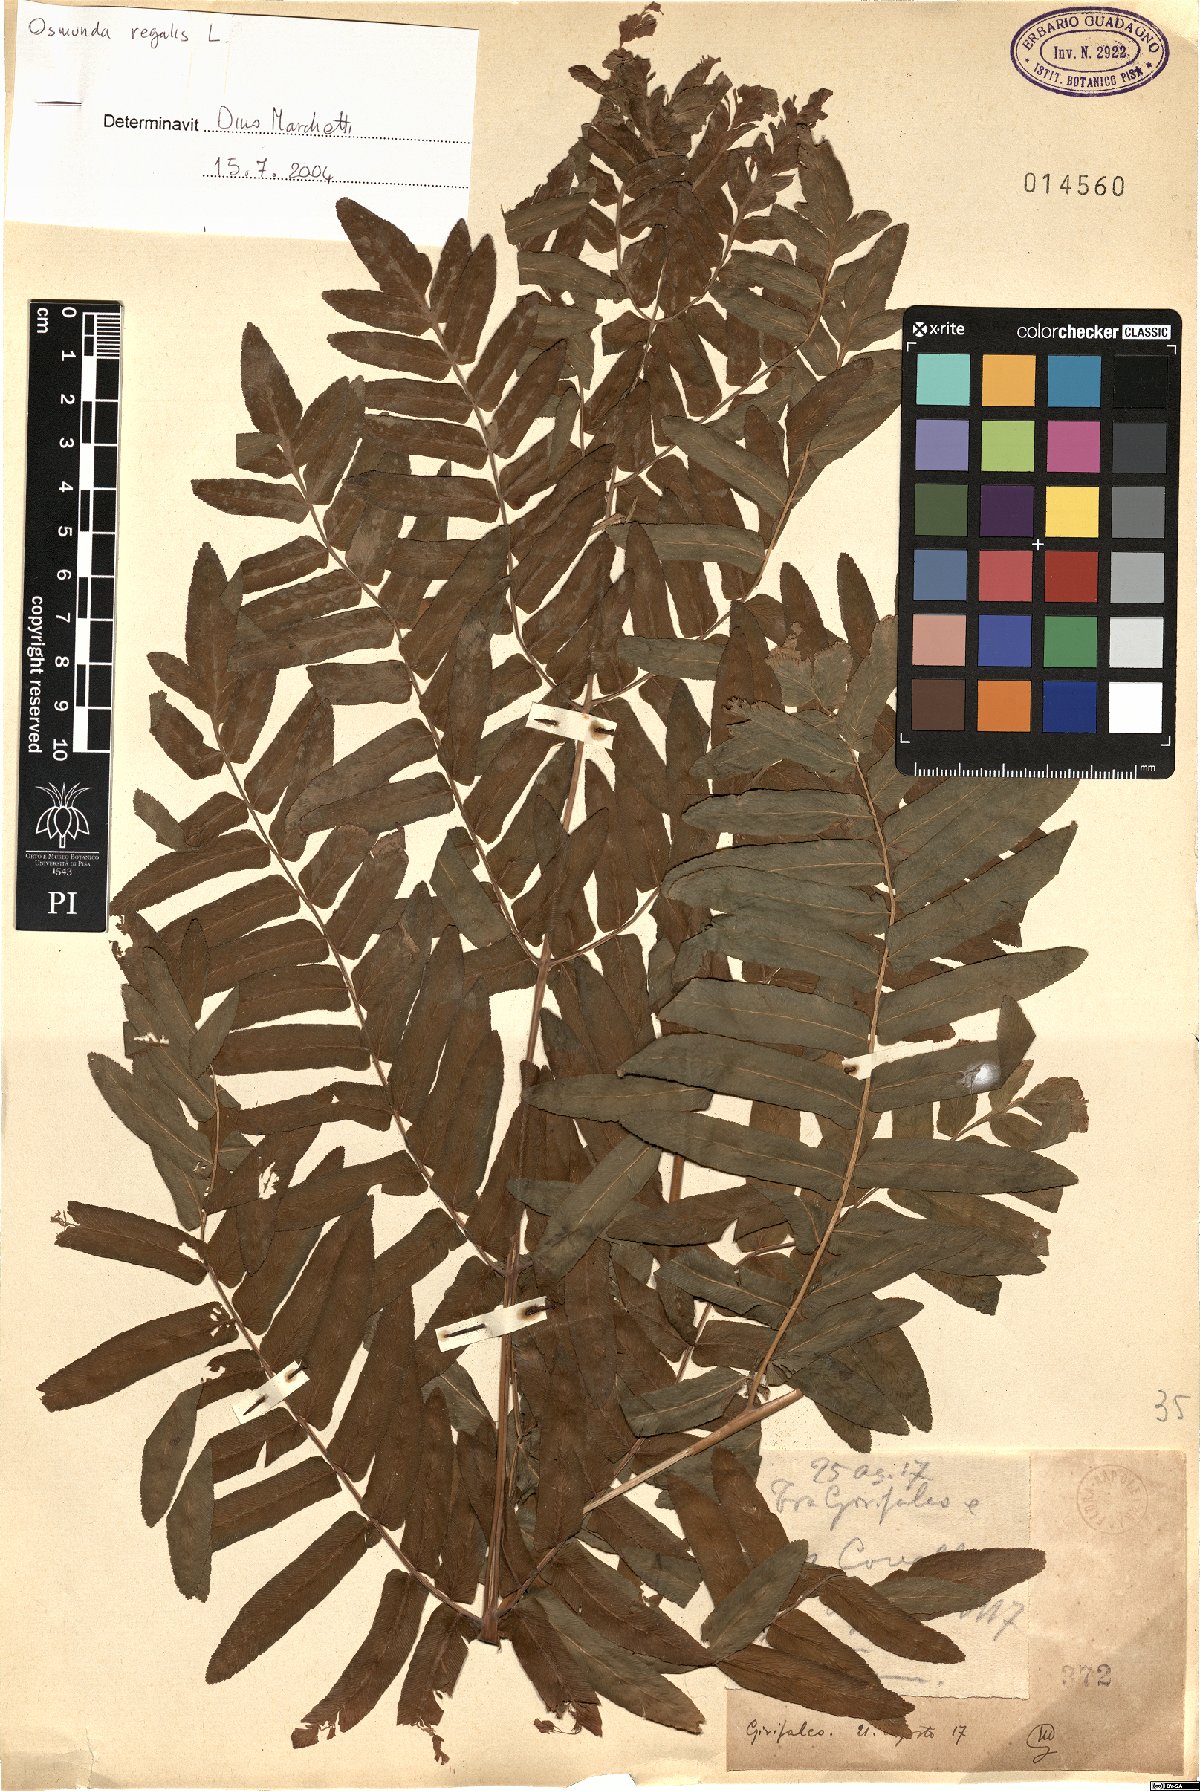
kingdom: Plantae
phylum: Tracheophyta
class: Polypodiopsida
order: Osmundales
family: Osmundaceae
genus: Osmunda
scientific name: Osmunda regalis
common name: Royal fern
